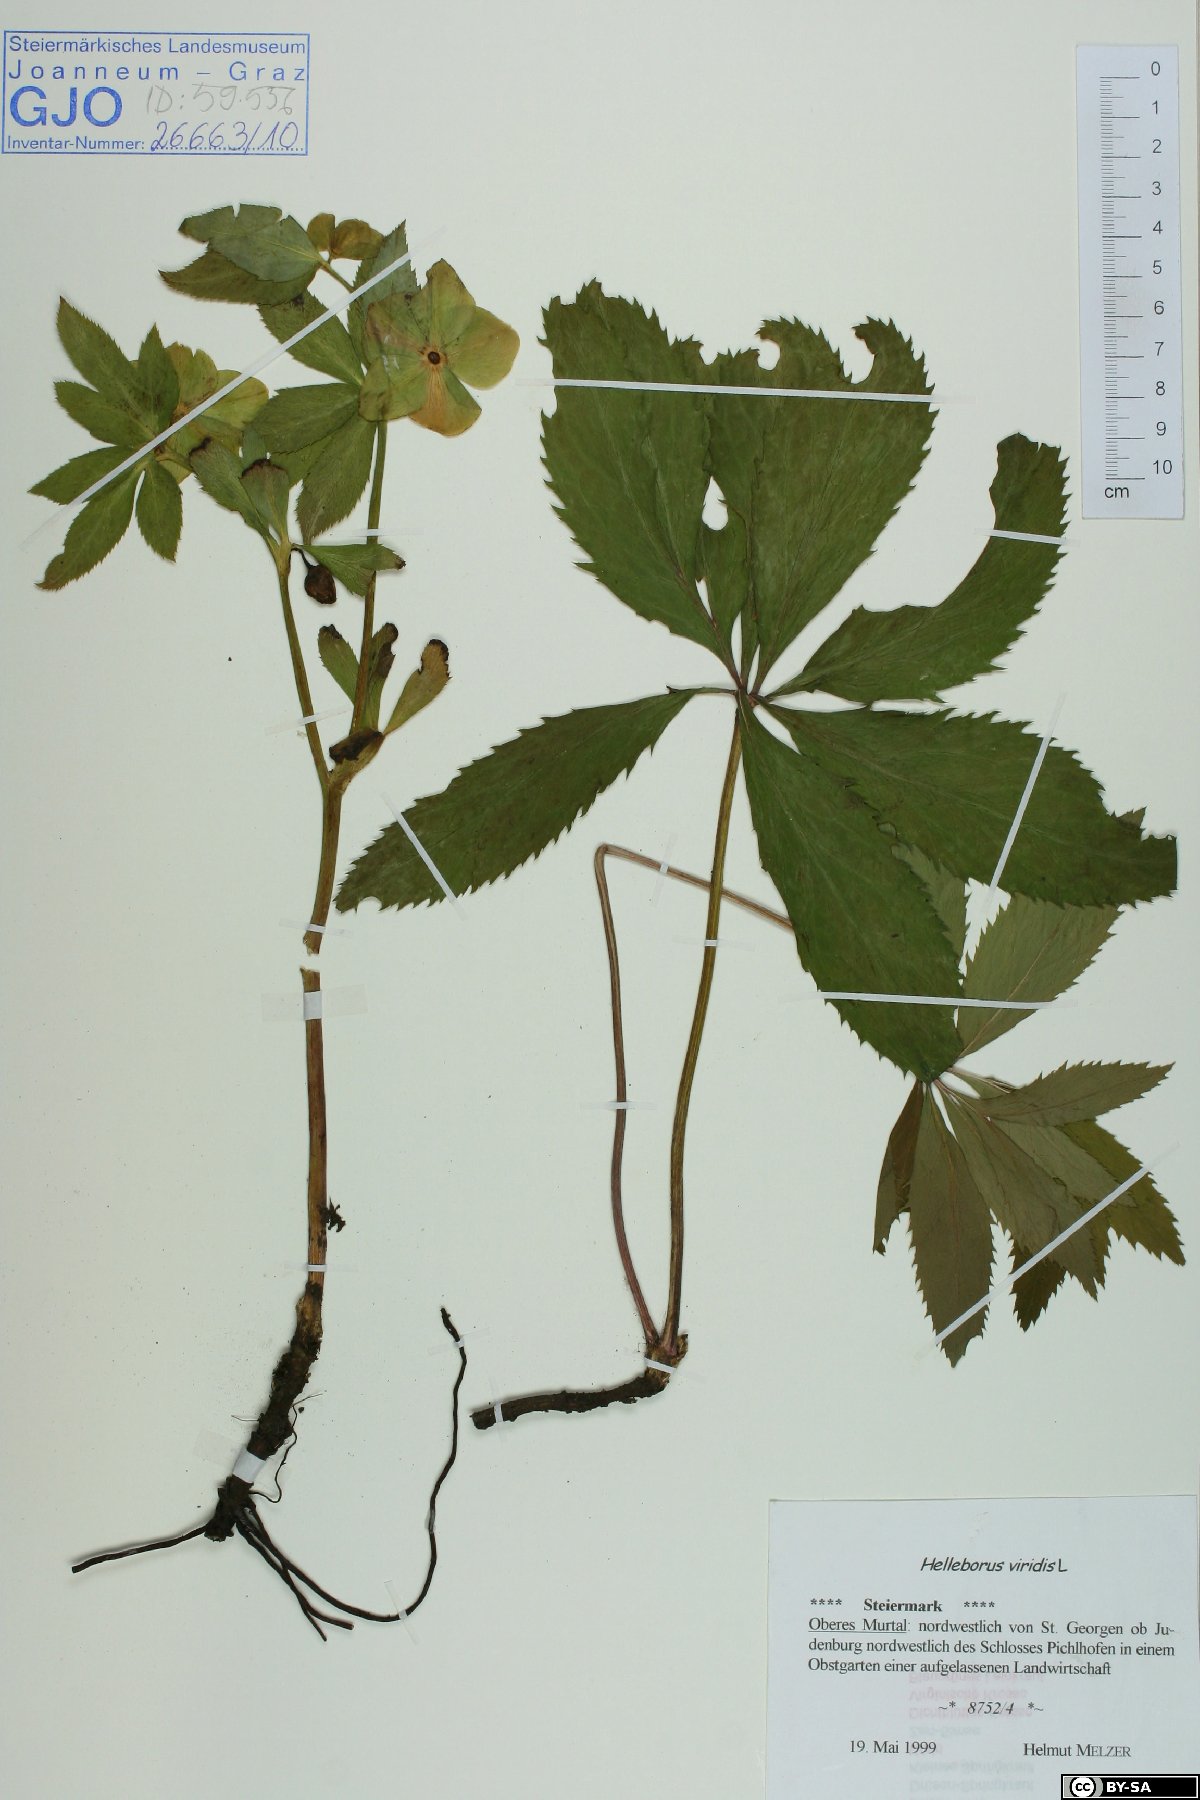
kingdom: Plantae
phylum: Tracheophyta
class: Magnoliopsida
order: Ranunculales
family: Ranunculaceae
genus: Helleborus
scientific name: Helleborus viridis
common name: Green hellebore
